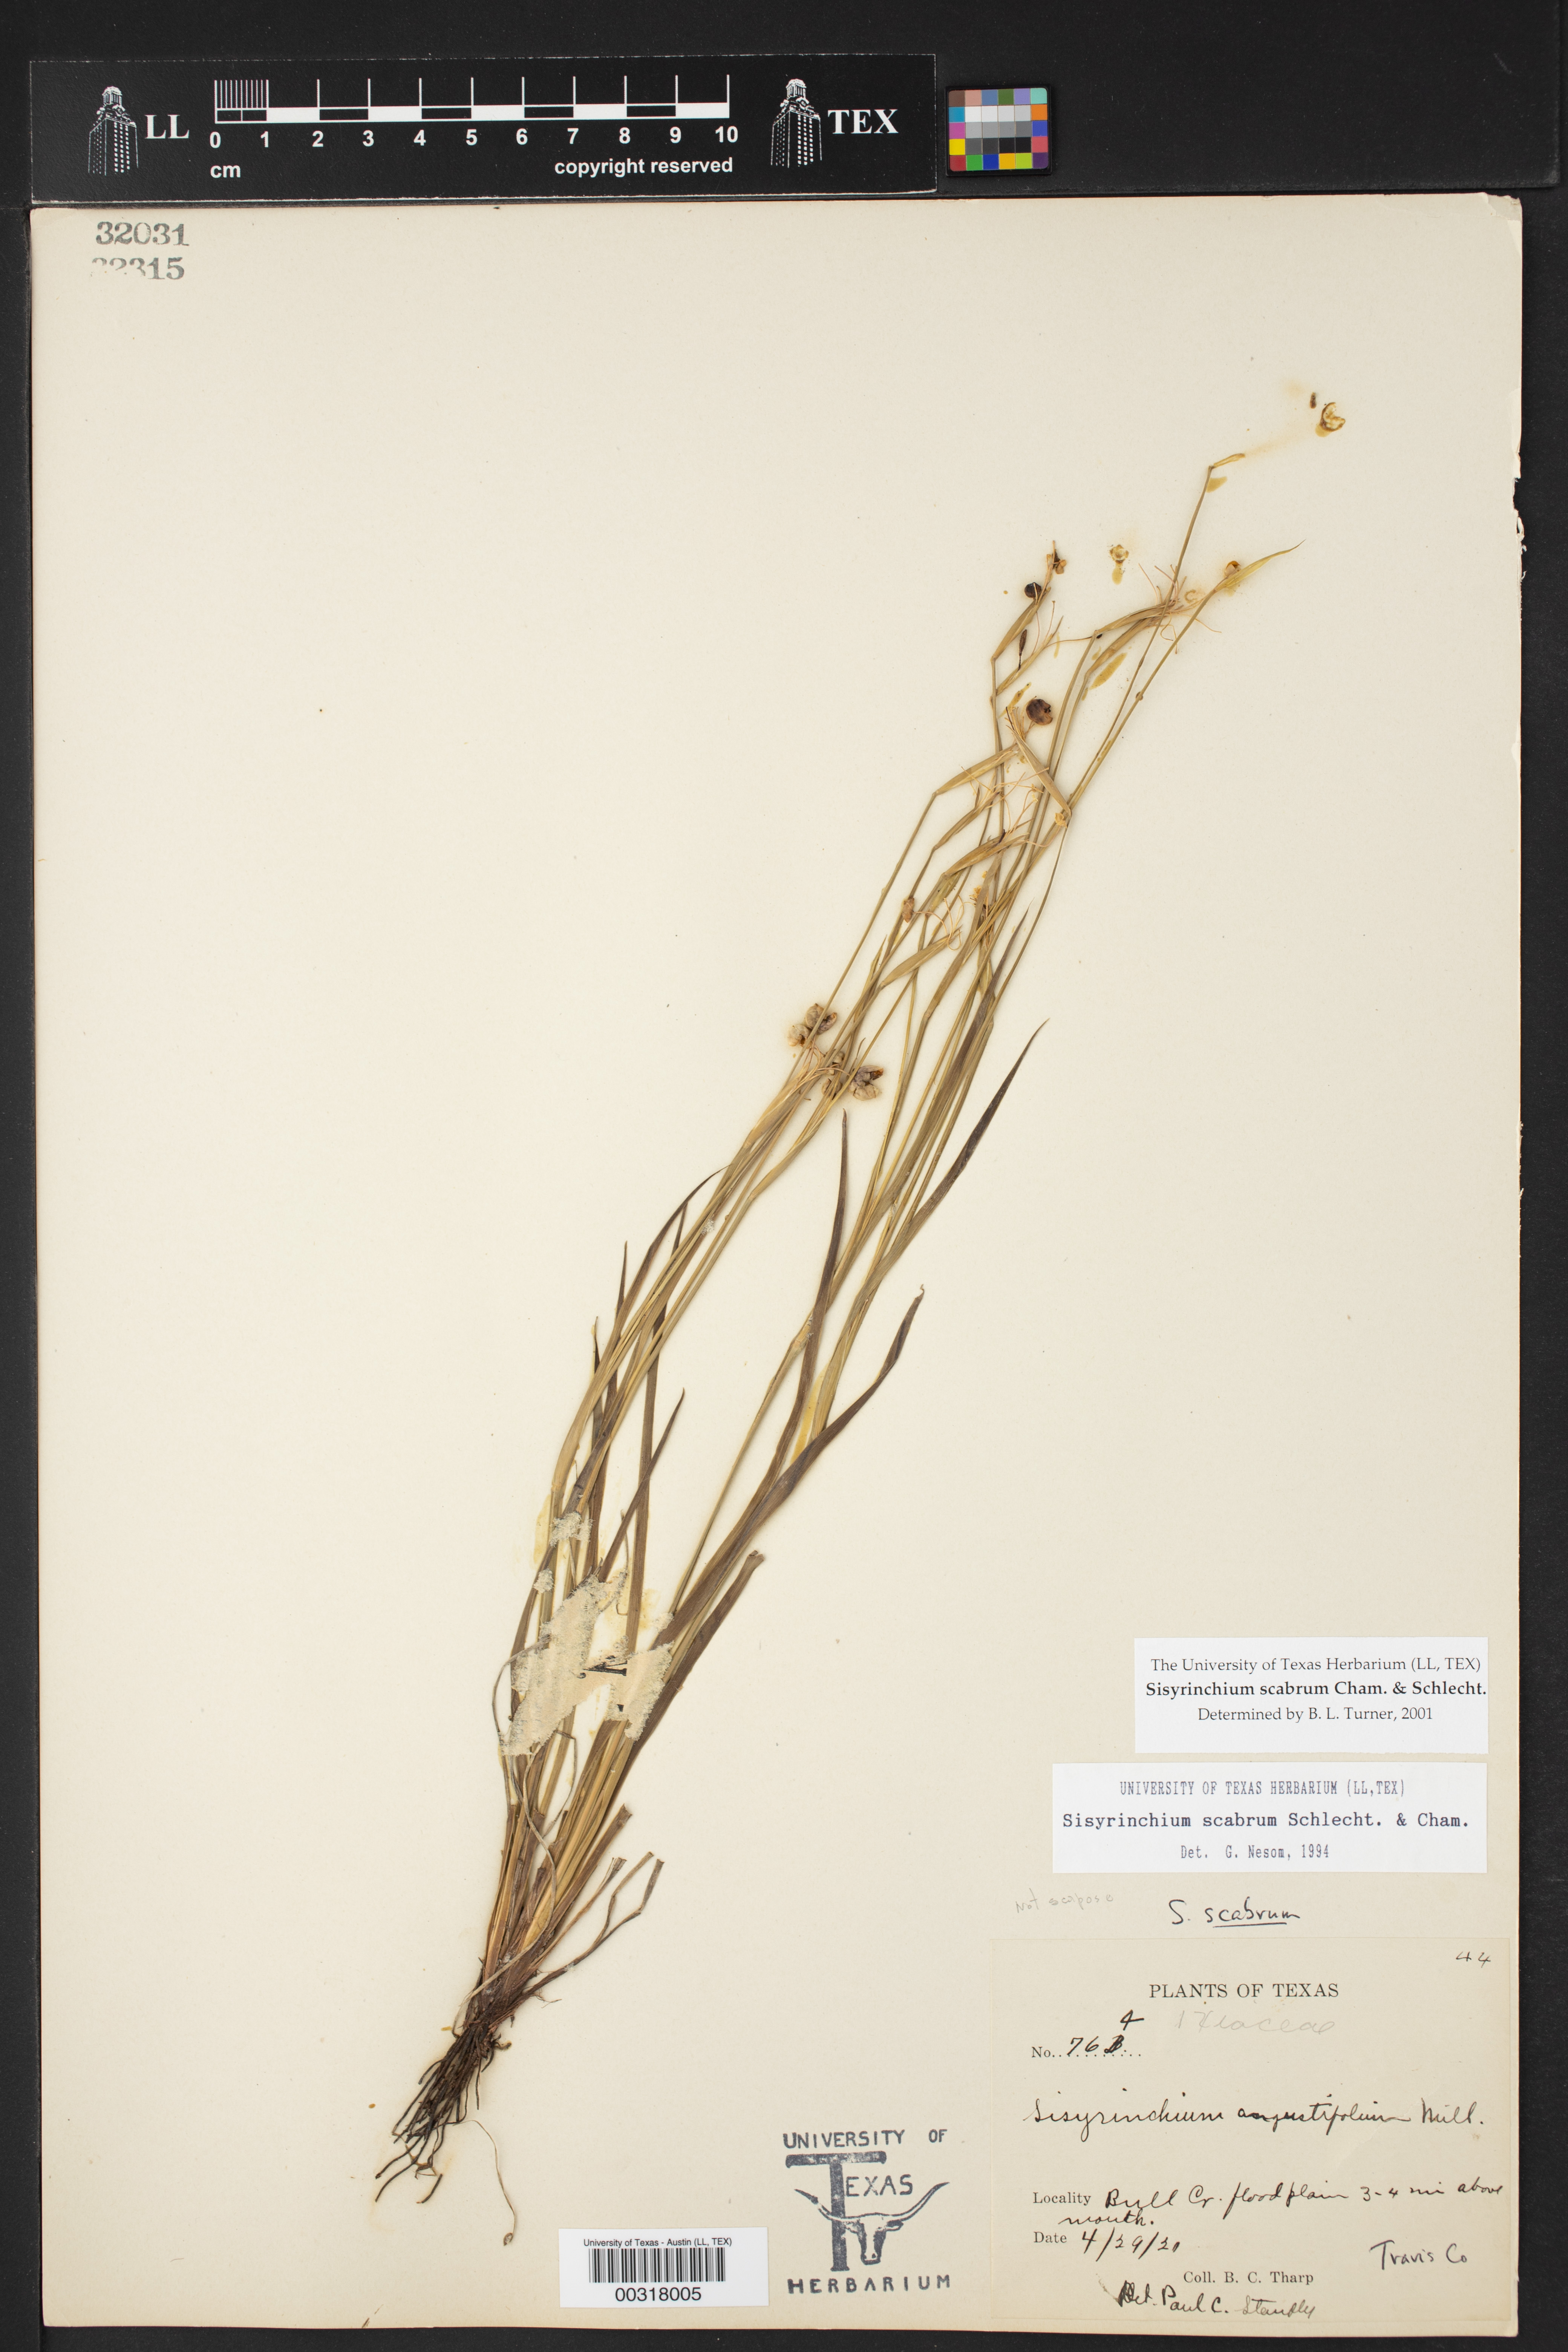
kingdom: Plantae
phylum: Tracheophyta
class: Liliopsida
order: Asparagales
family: Iridaceae
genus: Sisyrinchium
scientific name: Sisyrinchium scabrum
